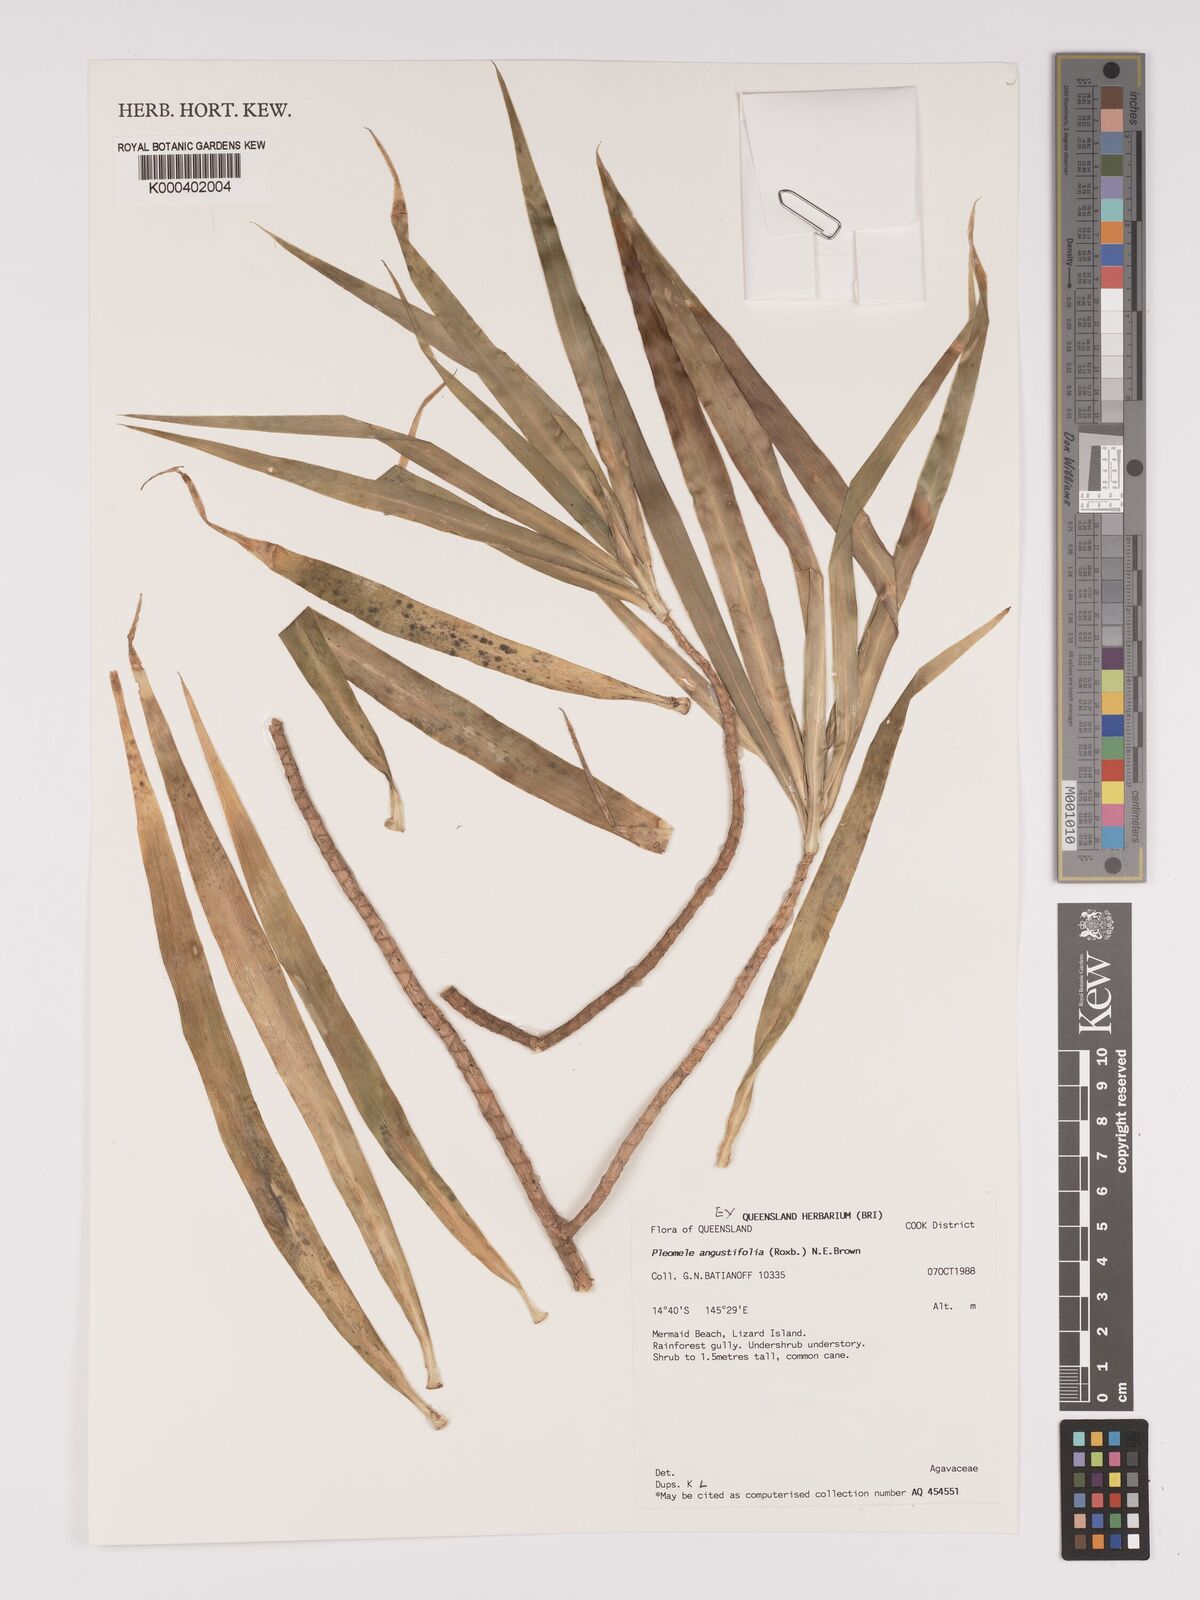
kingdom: Plantae
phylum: Tracheophyta
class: Liliopsida
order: Asparagales
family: Asparagaceae
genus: Dracaena
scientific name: Dracaena angustifolia
